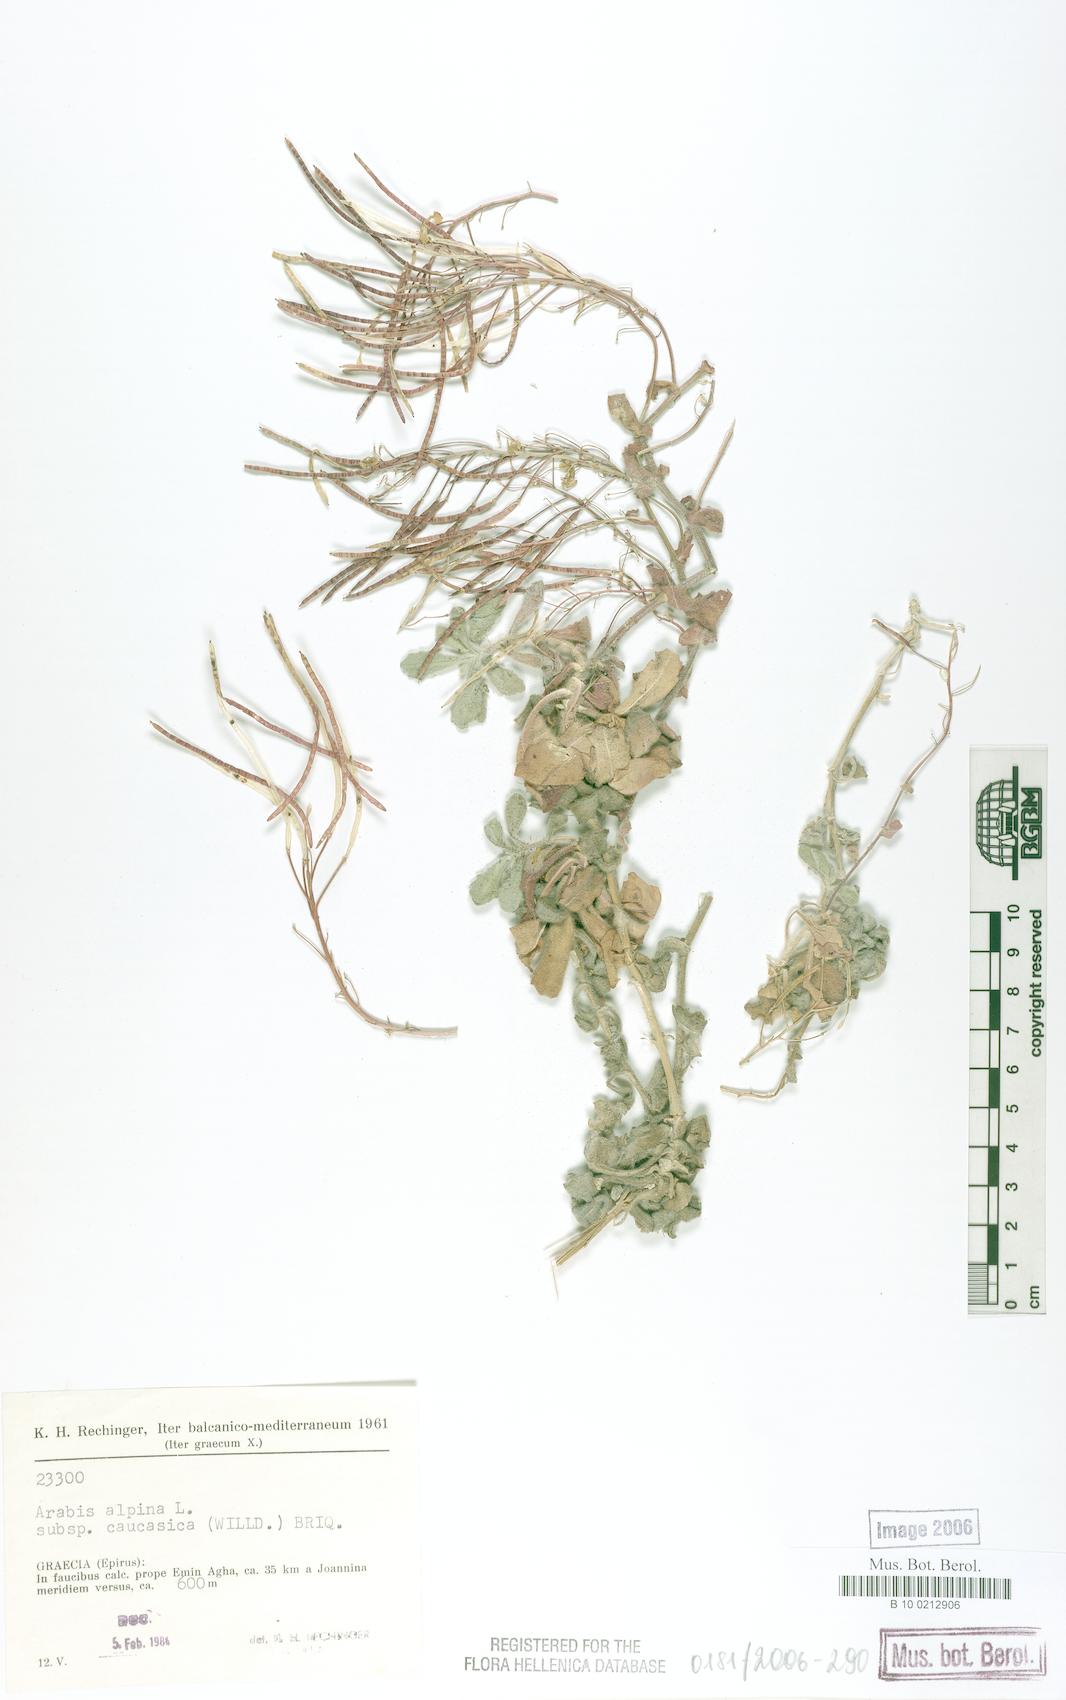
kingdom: Plantae
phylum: Tracheophyta
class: Magnoliopsida
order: Brassicales
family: Brassicaceae
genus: Arabis
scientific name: Arabis alpina
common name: Alpine rock-cress
